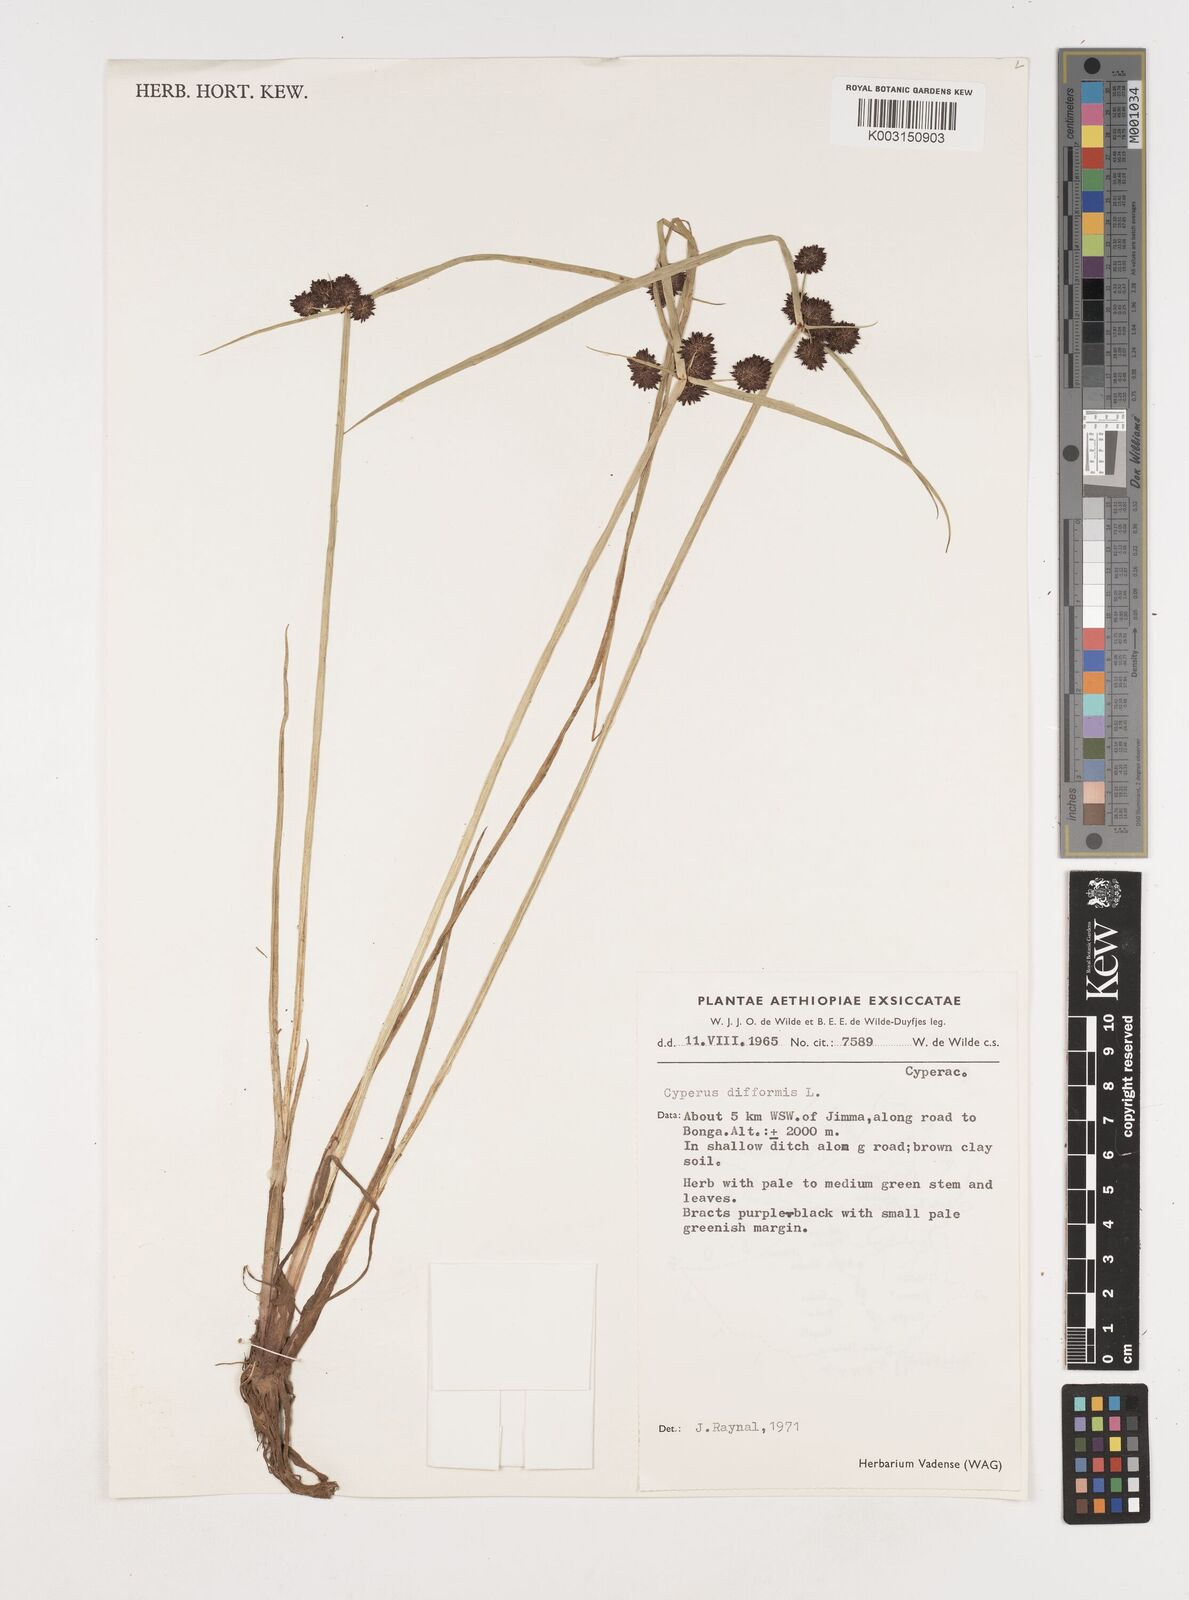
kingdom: Plantae
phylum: Tracheophyta
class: Liliopsida
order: Poales
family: Cyperaceae
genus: Cyperus
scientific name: Cyperus difformis
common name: Variable flatsedge
